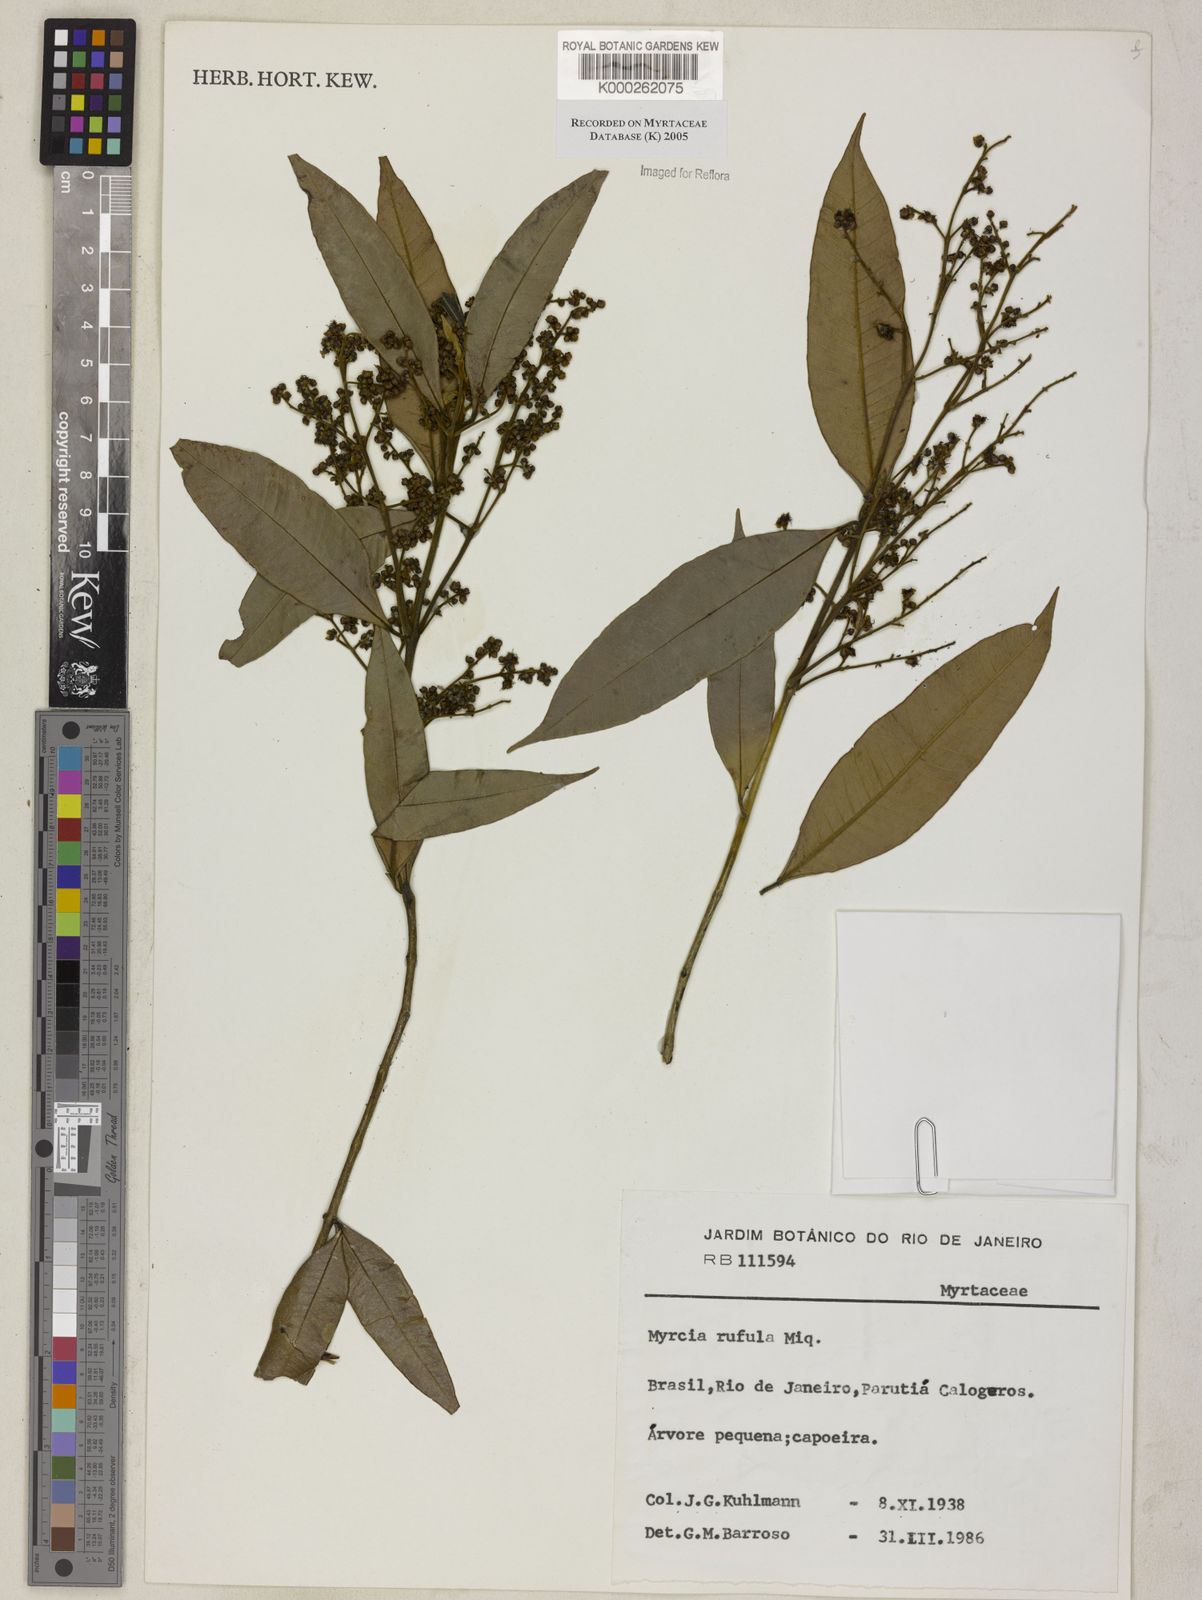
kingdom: Plantae
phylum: Tracheophyta
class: Magnoliopsida
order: Myrtales
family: Myrtaceae
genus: Myrcia
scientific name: Myrcia splendens
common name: Surinam cherry
